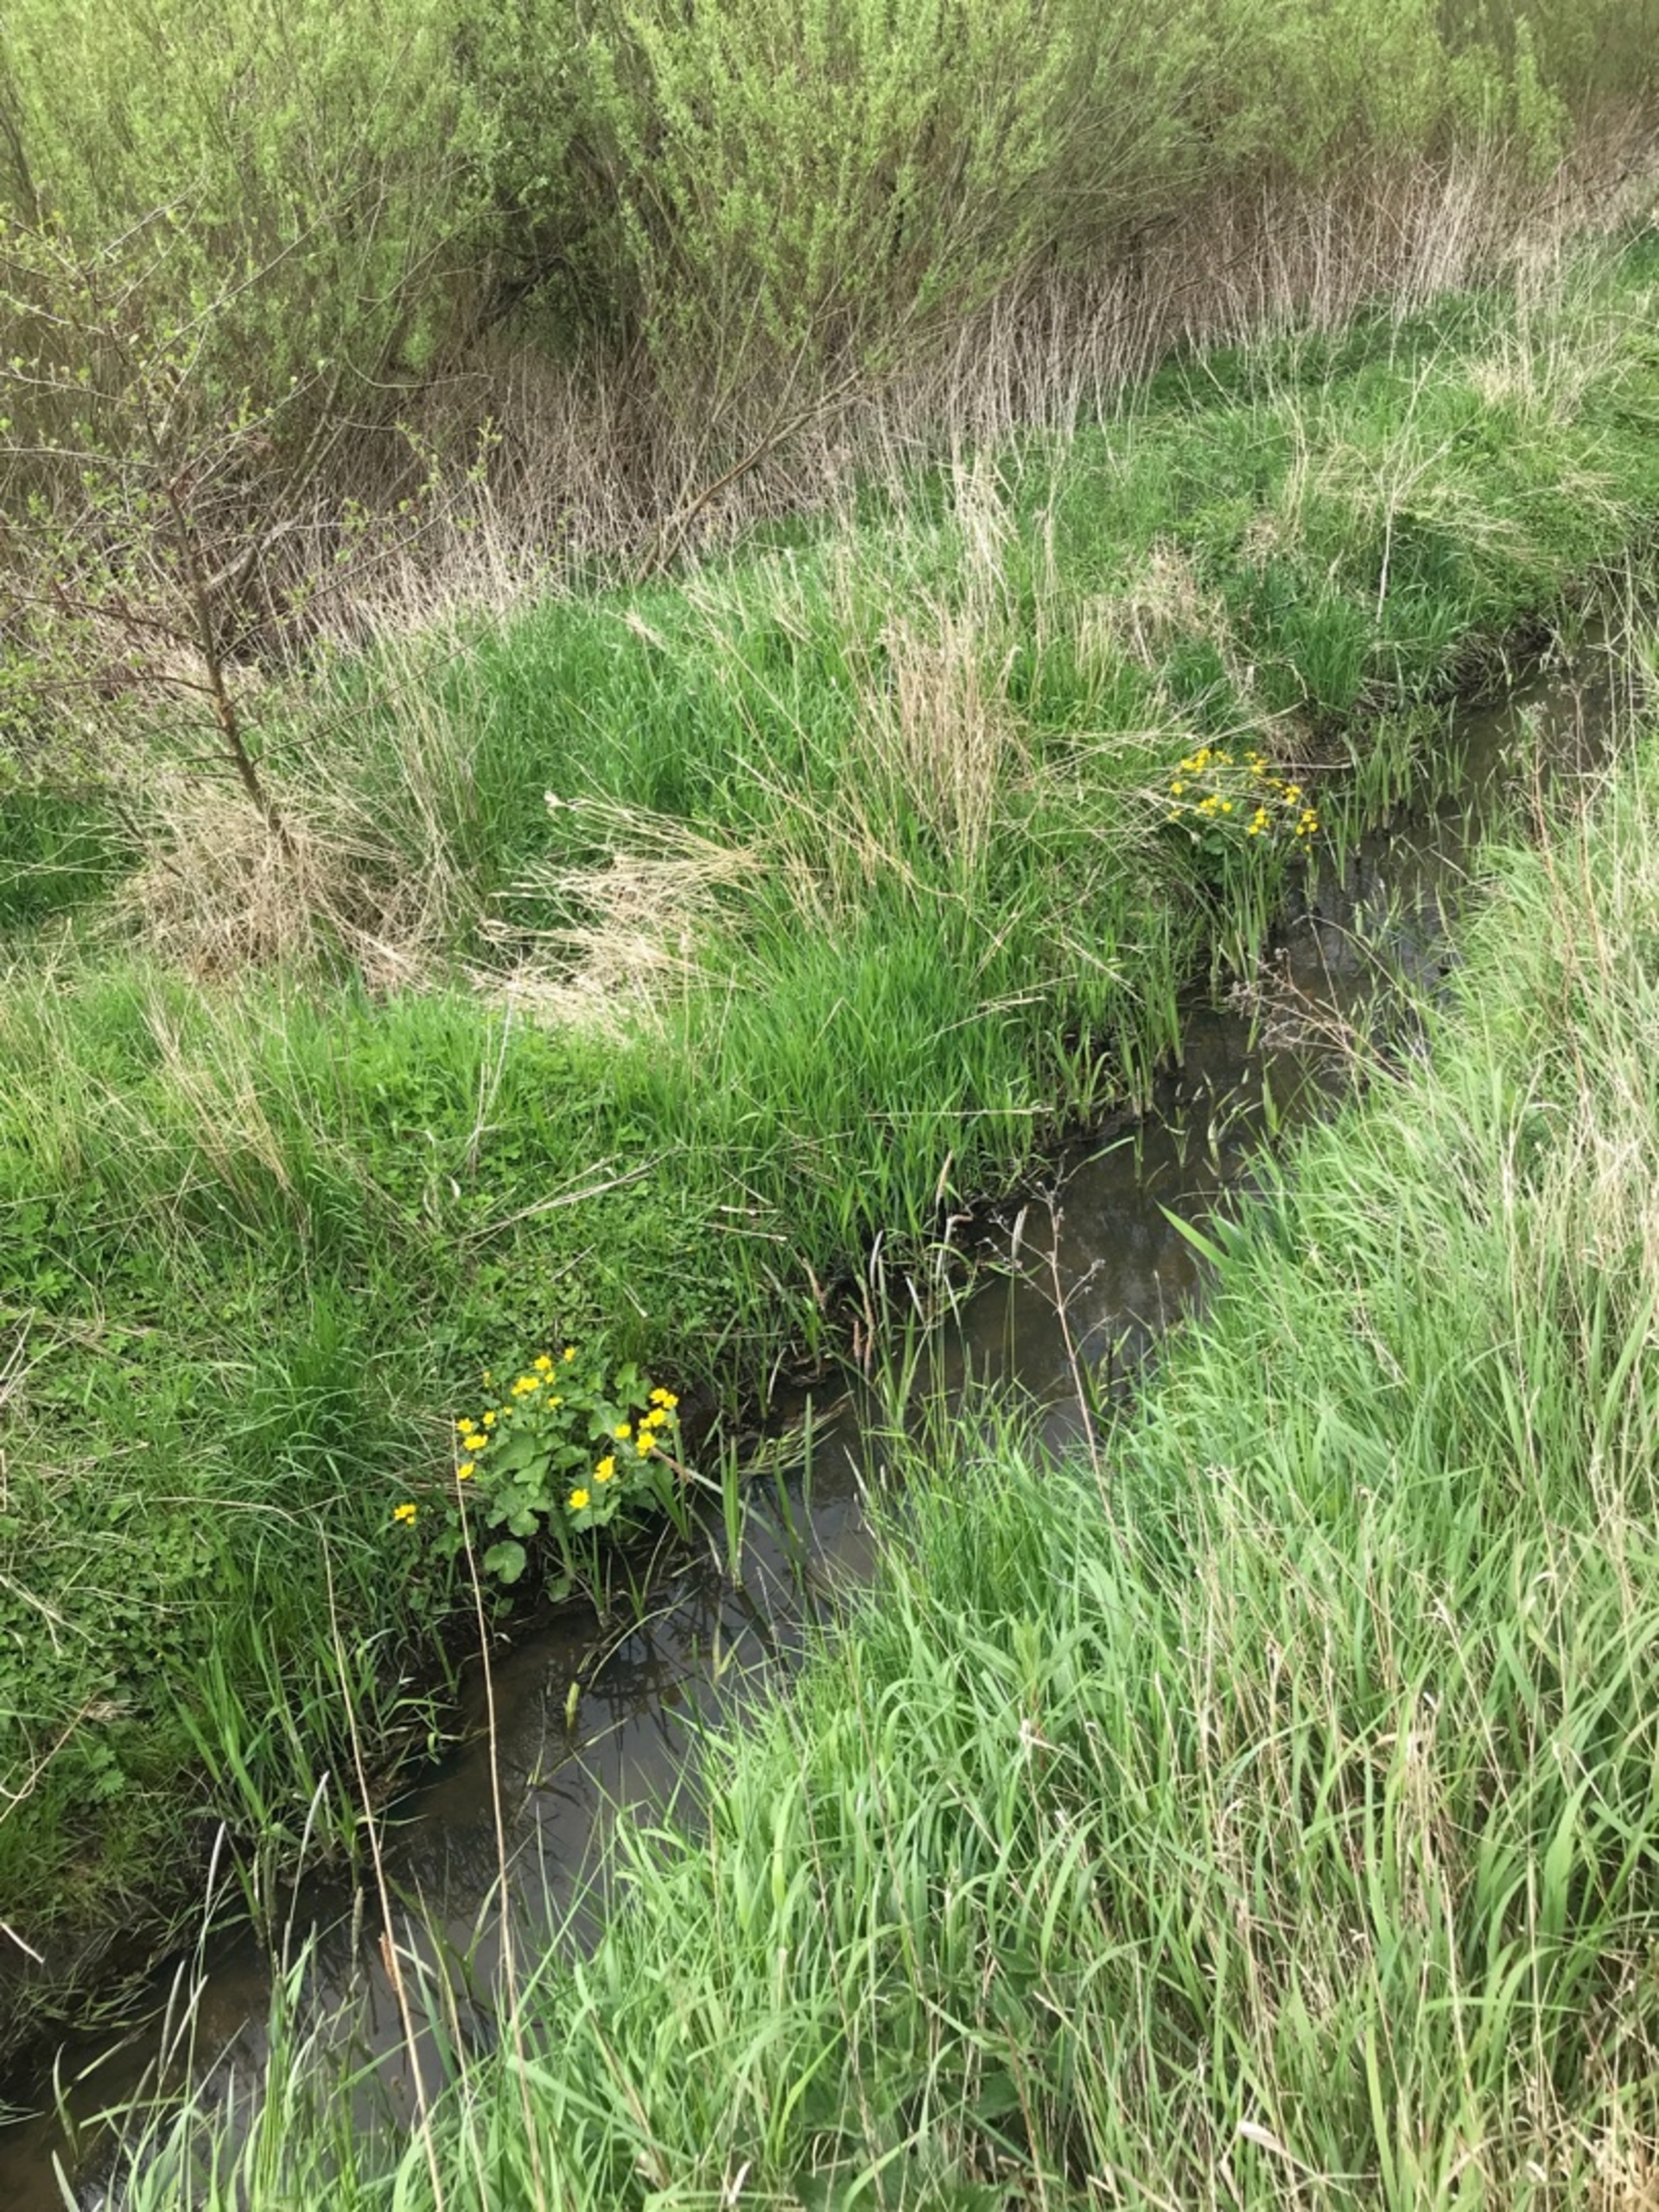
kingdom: Plantae
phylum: Tracheophyta
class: Magnoliopsida
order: Ranunculales
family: Ranunculaceae
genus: Caltha
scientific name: Caltha palustris
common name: Eng-kabbeleje
